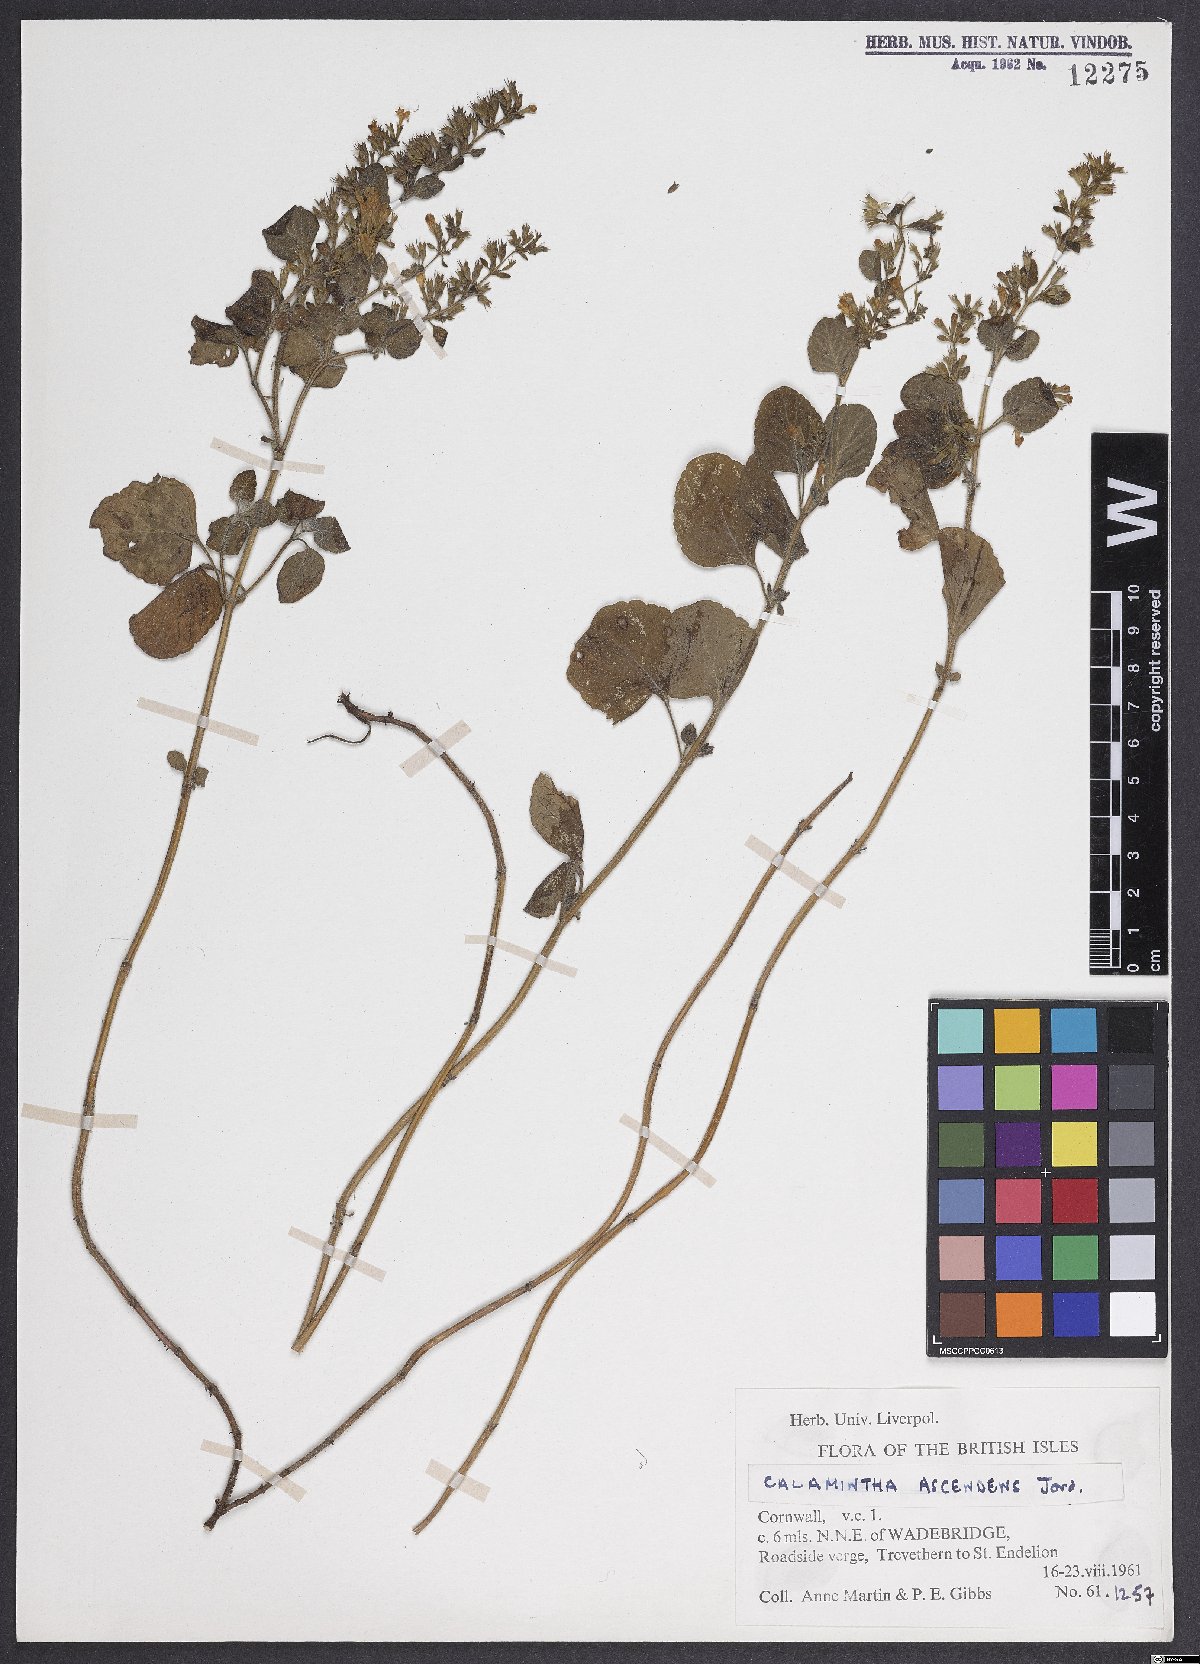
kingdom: Plantae
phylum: Tracheophyta
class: Magnoliopsida
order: Lamiales
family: Lamiaceae
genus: Clinopodium
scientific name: Clinopodium menthifolium
